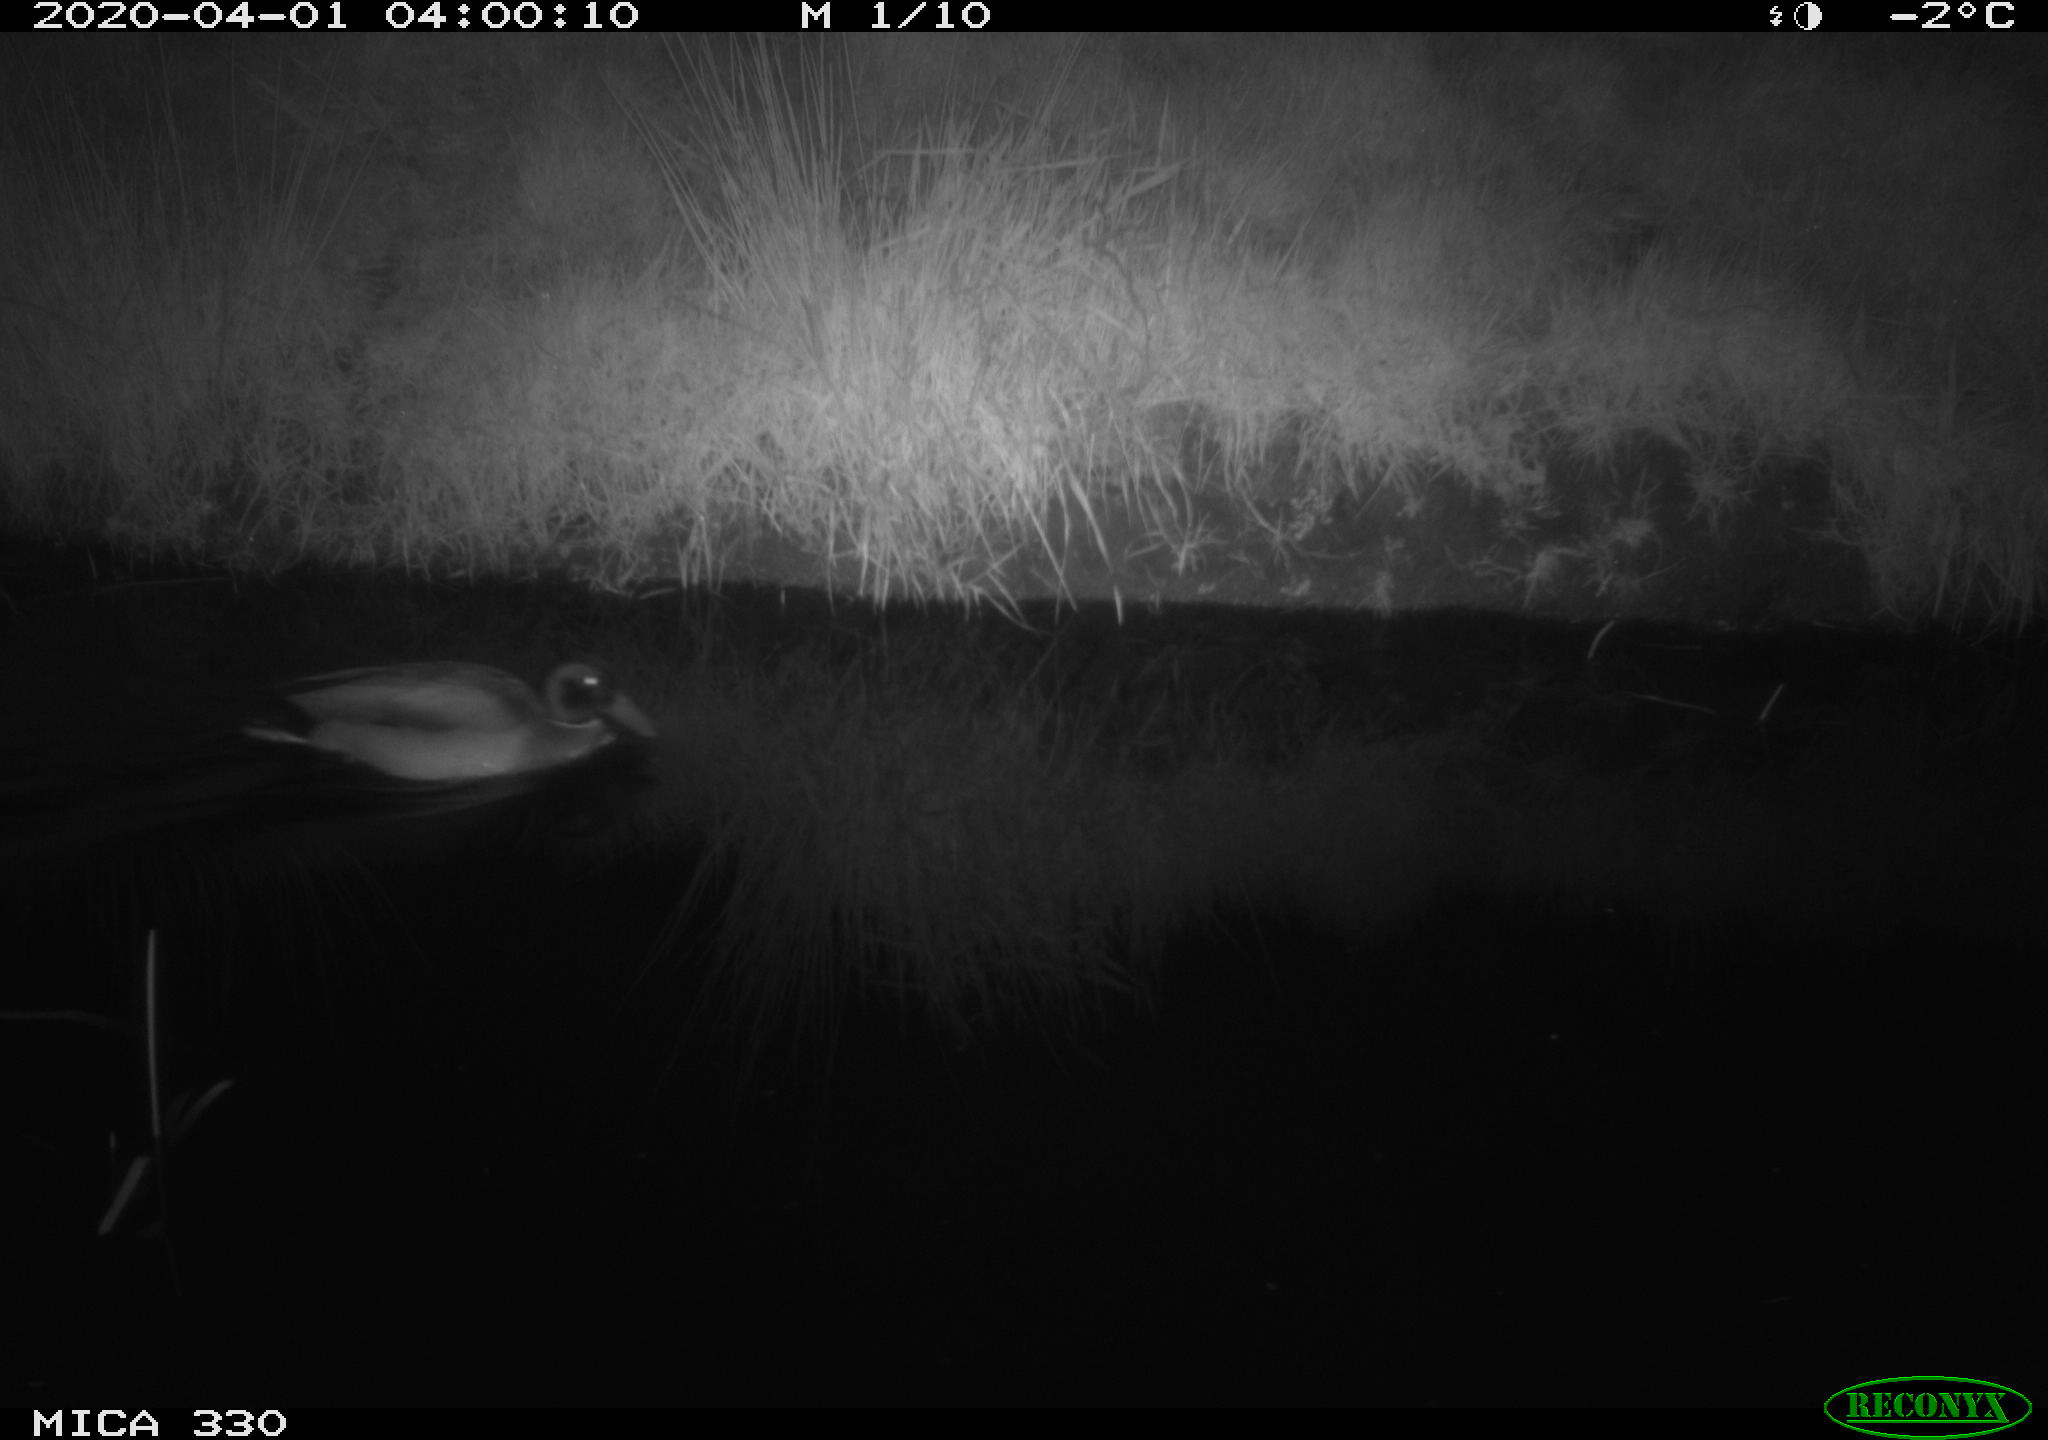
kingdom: Animalia
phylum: Chordata
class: Aves
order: Anseriformes
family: Anatidae
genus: Anas
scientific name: Anas platyrhynchos
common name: Mallard
